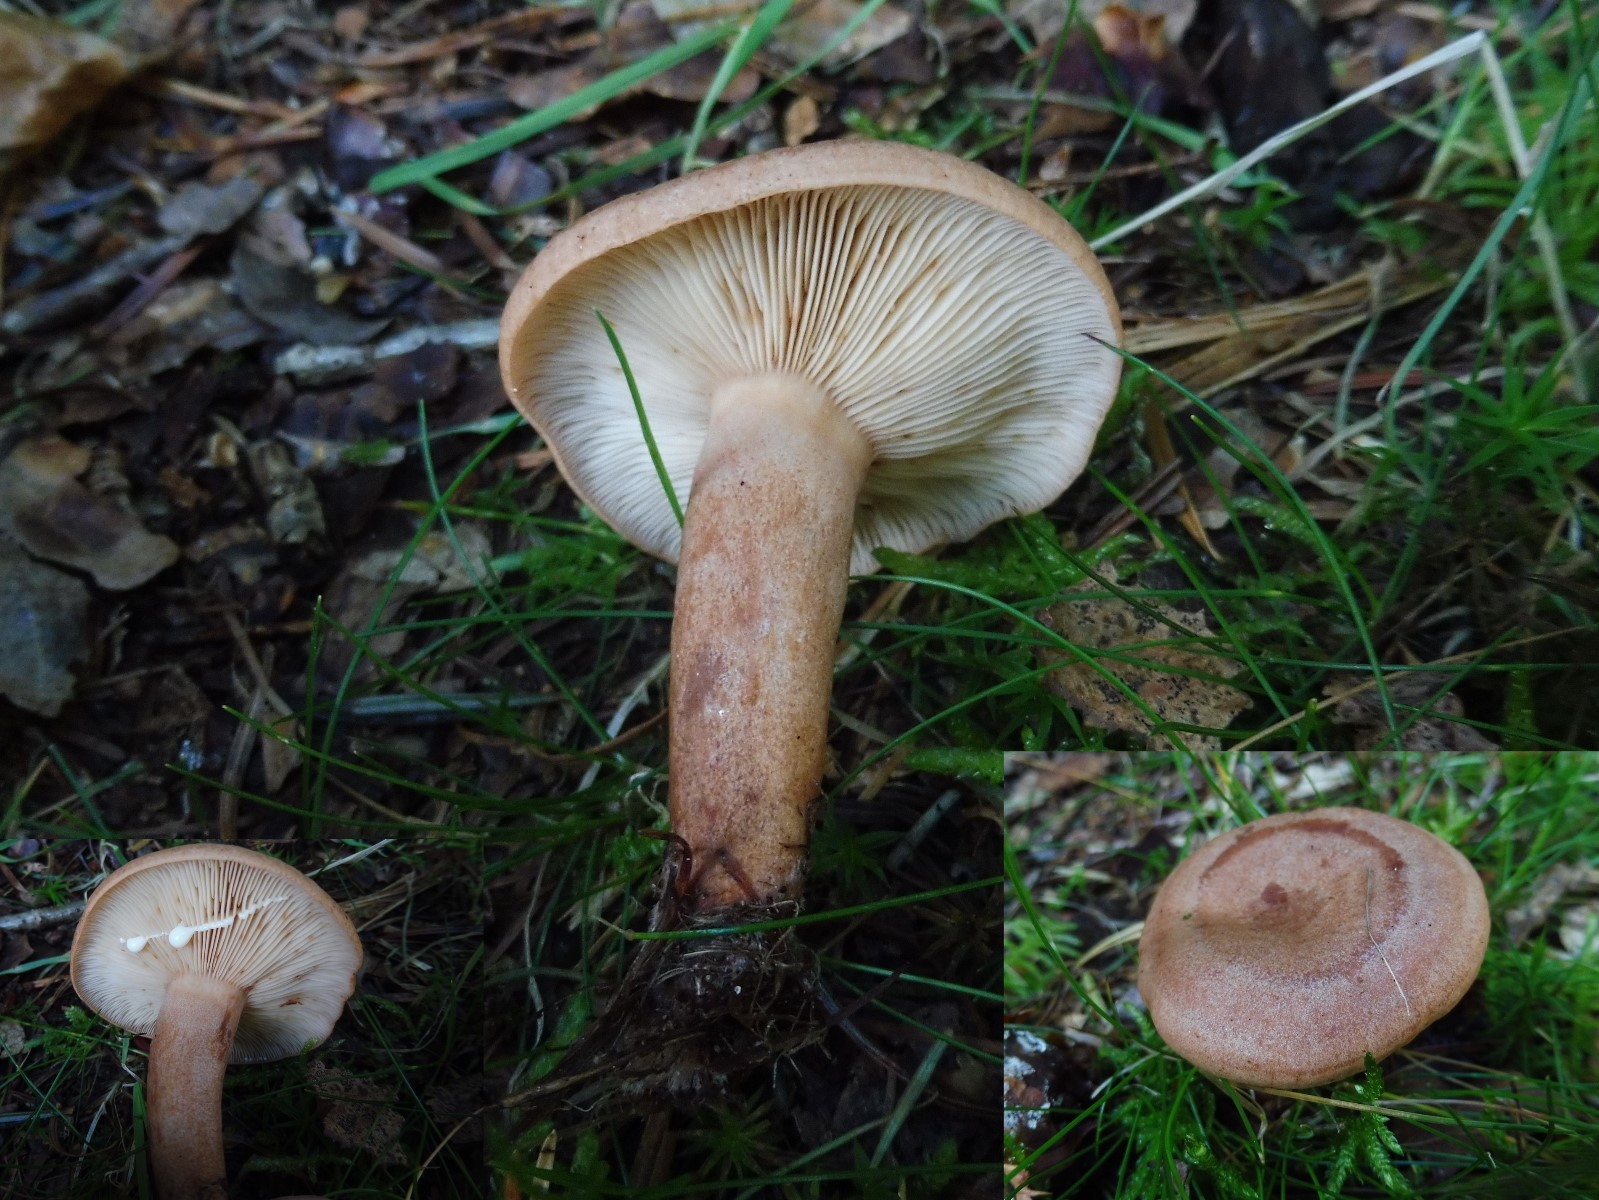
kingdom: Fungi
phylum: Basidiomycota
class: Agaricomycetes
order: Russulales
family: Russulaceae
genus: Lactarius
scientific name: Lactarius quietus
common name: ege-mælkehat
